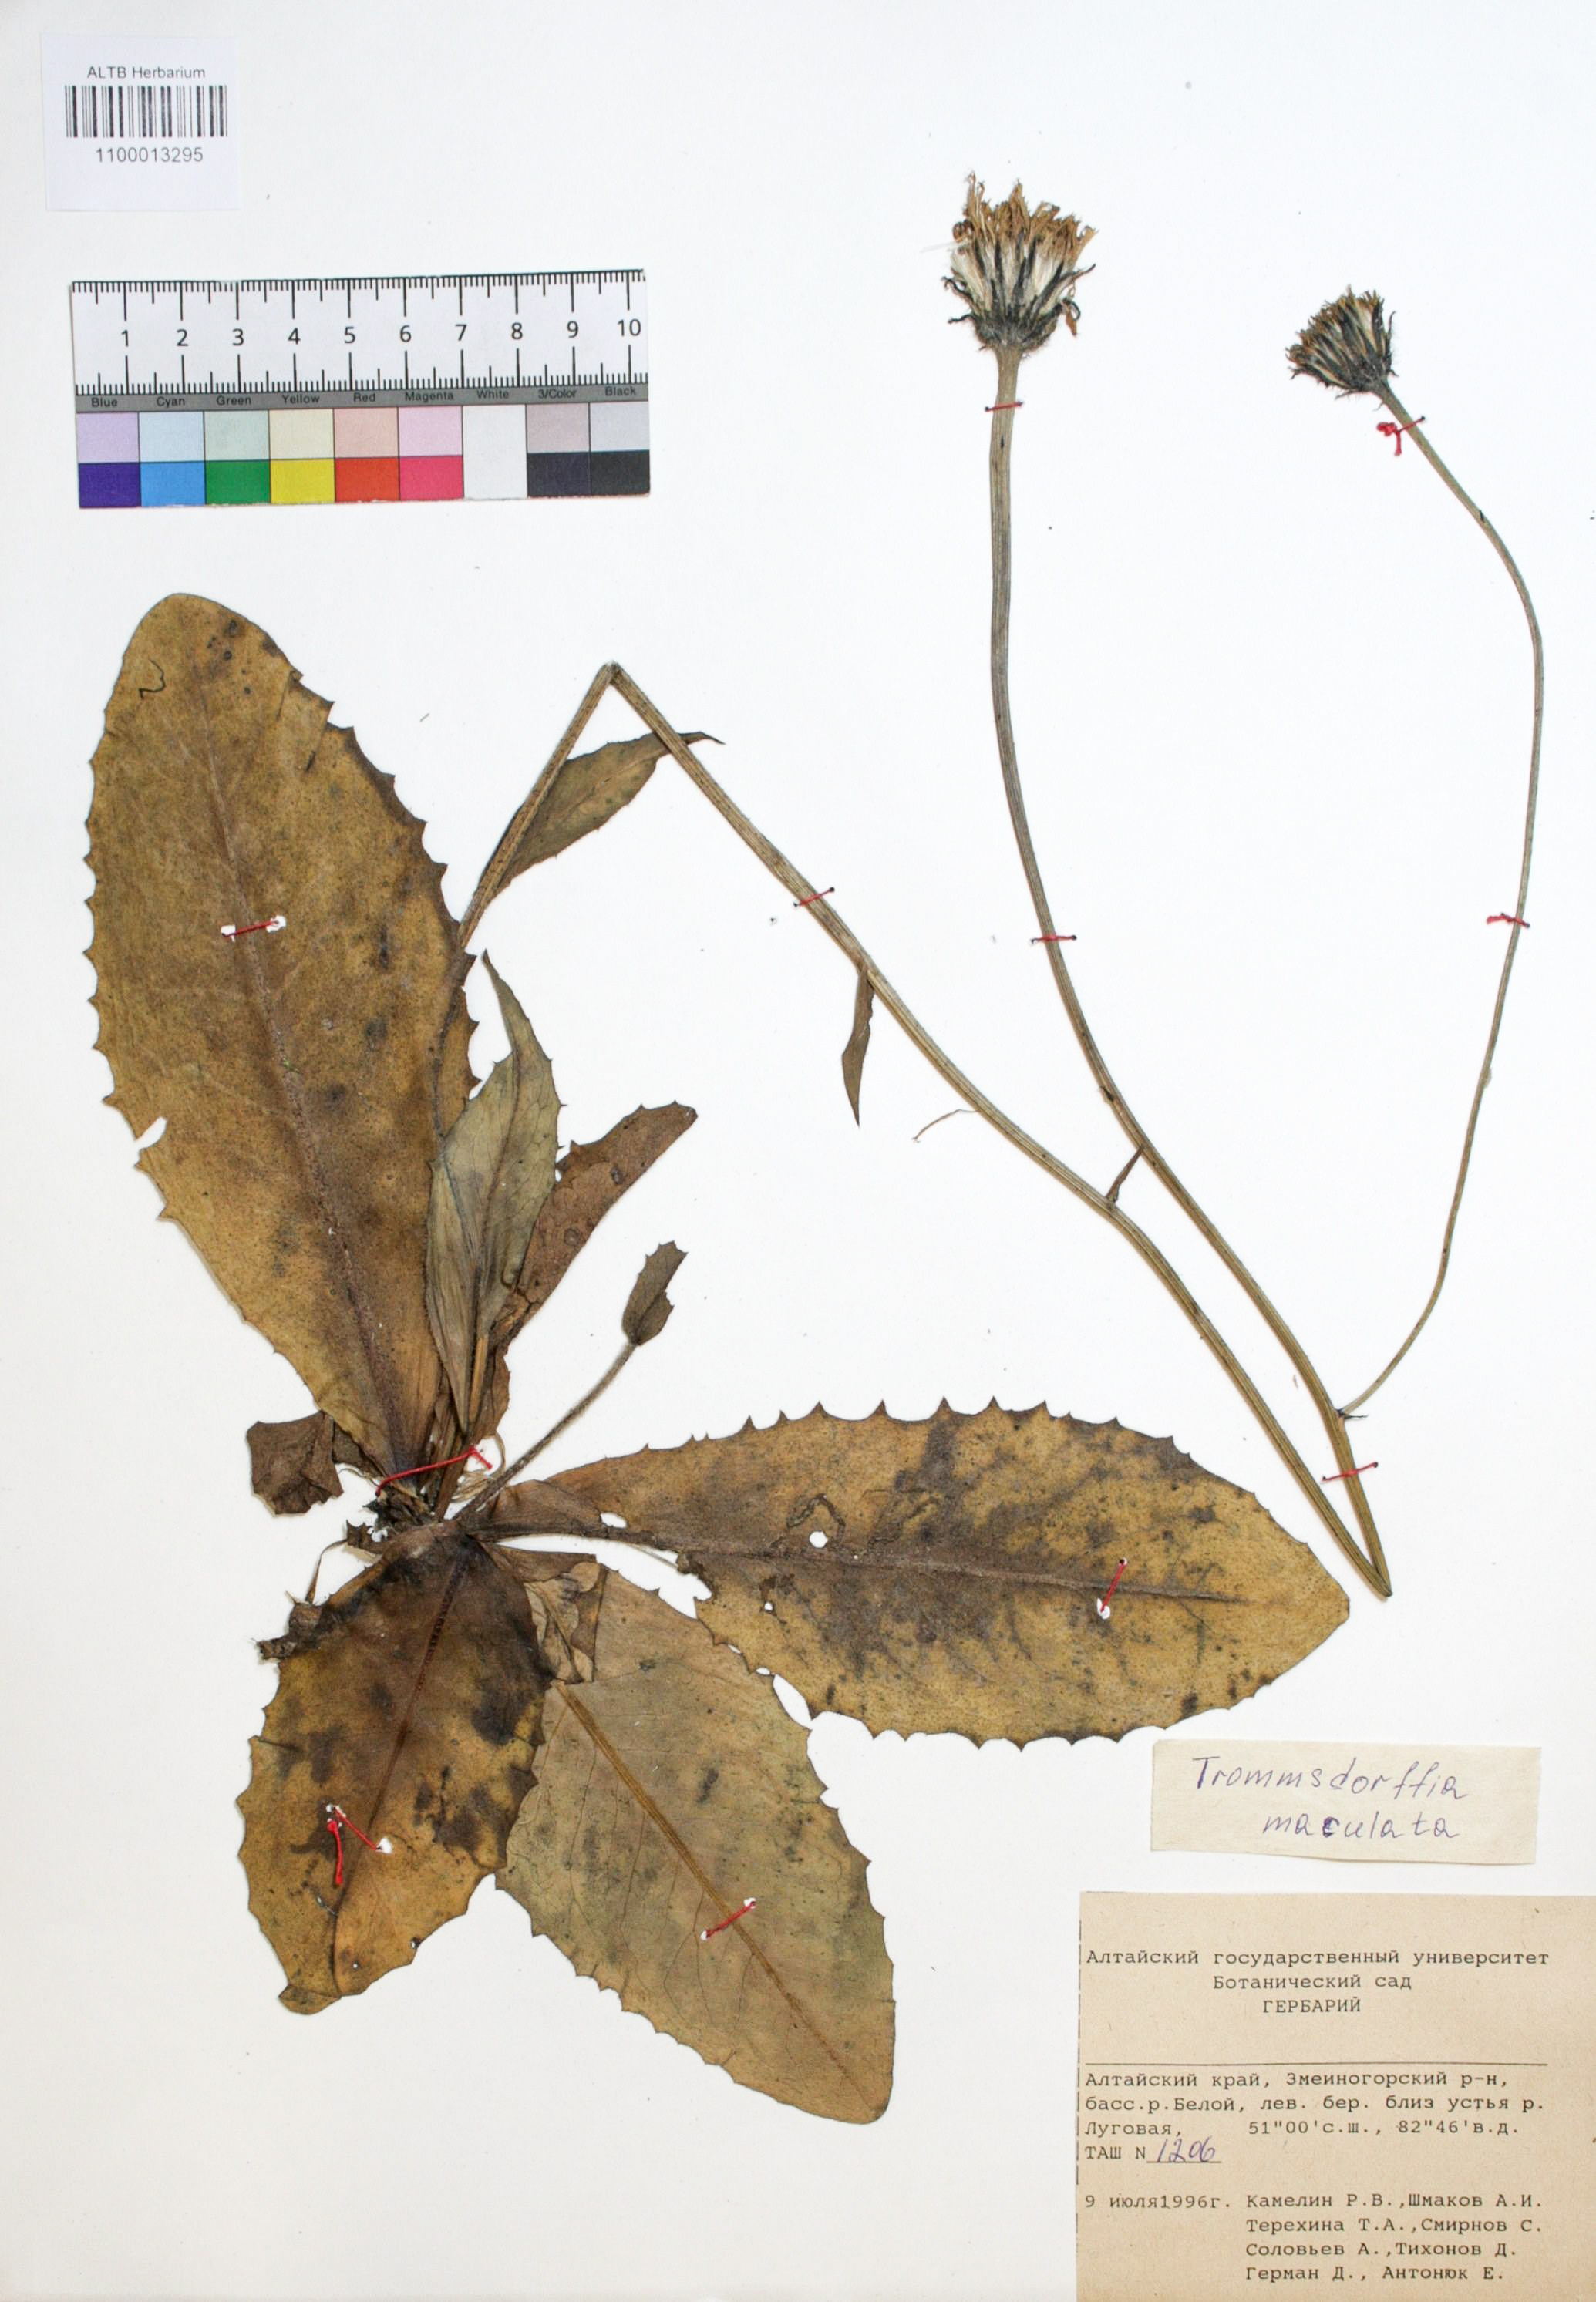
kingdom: Plantae
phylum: Tracheophyta
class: Magnoliopsida
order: Asterales
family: Asteraceae
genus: Trommsdorffia
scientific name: Trommsdorffia maculata
